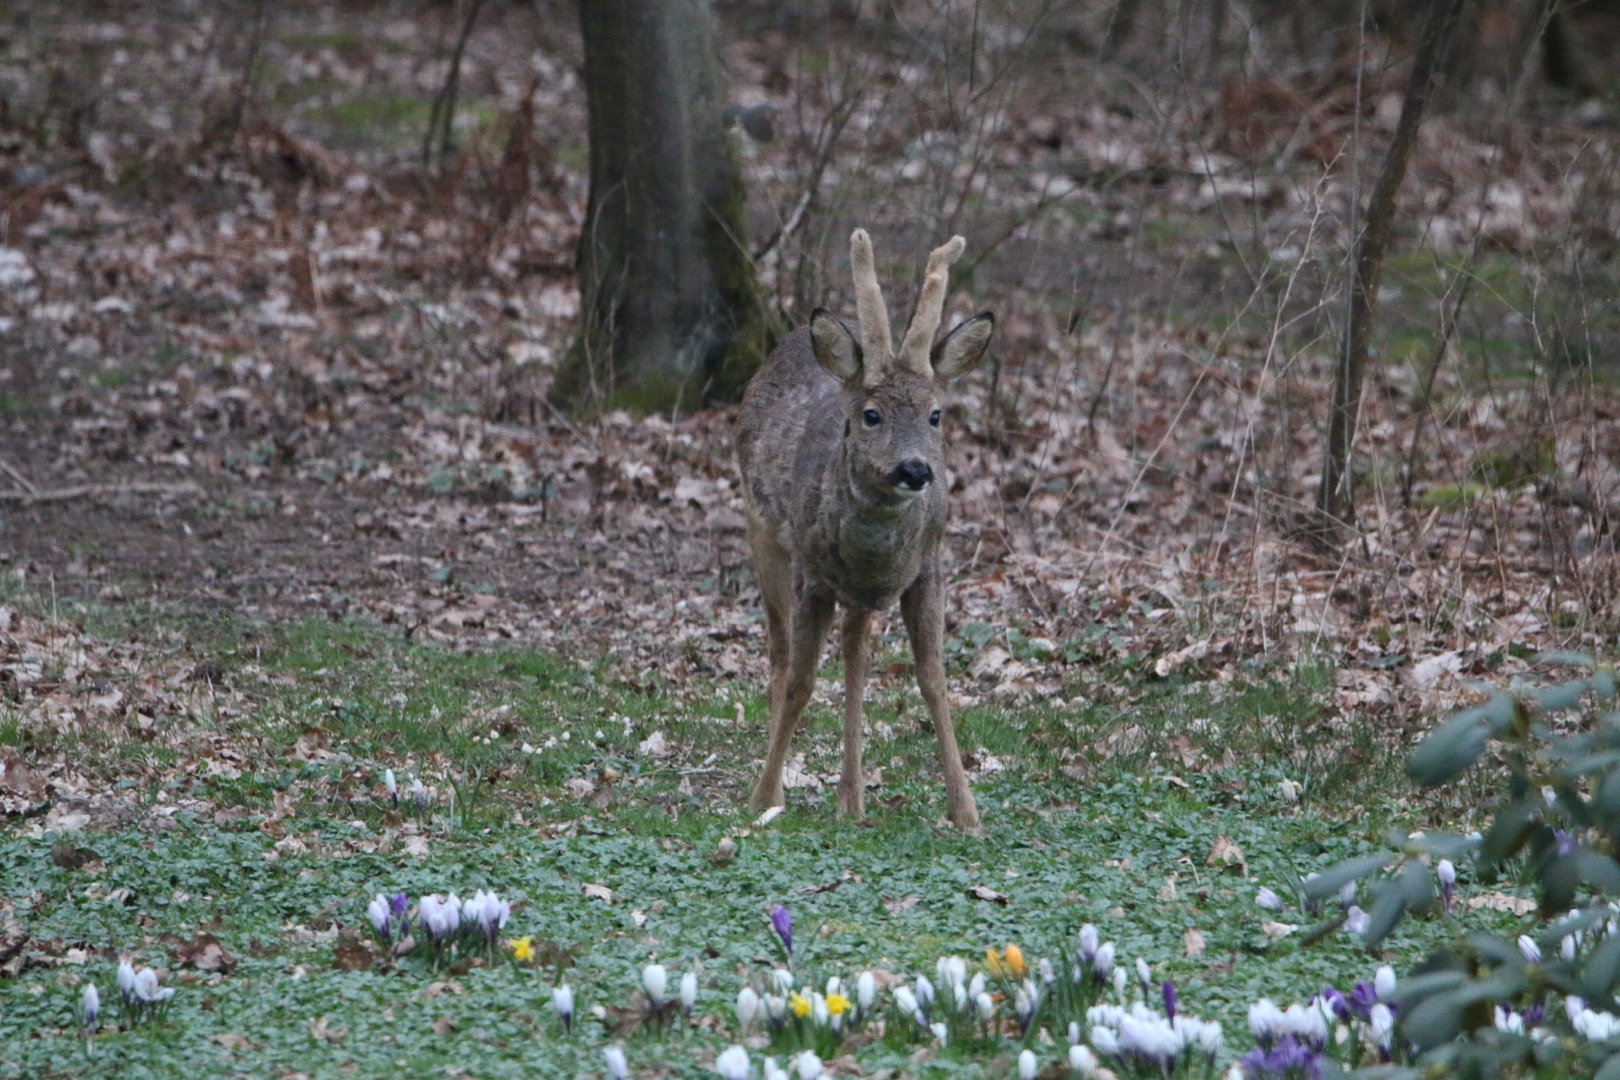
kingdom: Animalia
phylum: Chordata
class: Mammalia
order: Artiodactyla
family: Cervidae
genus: Capreolus
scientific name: Capreolus capreolus
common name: Rådyr
